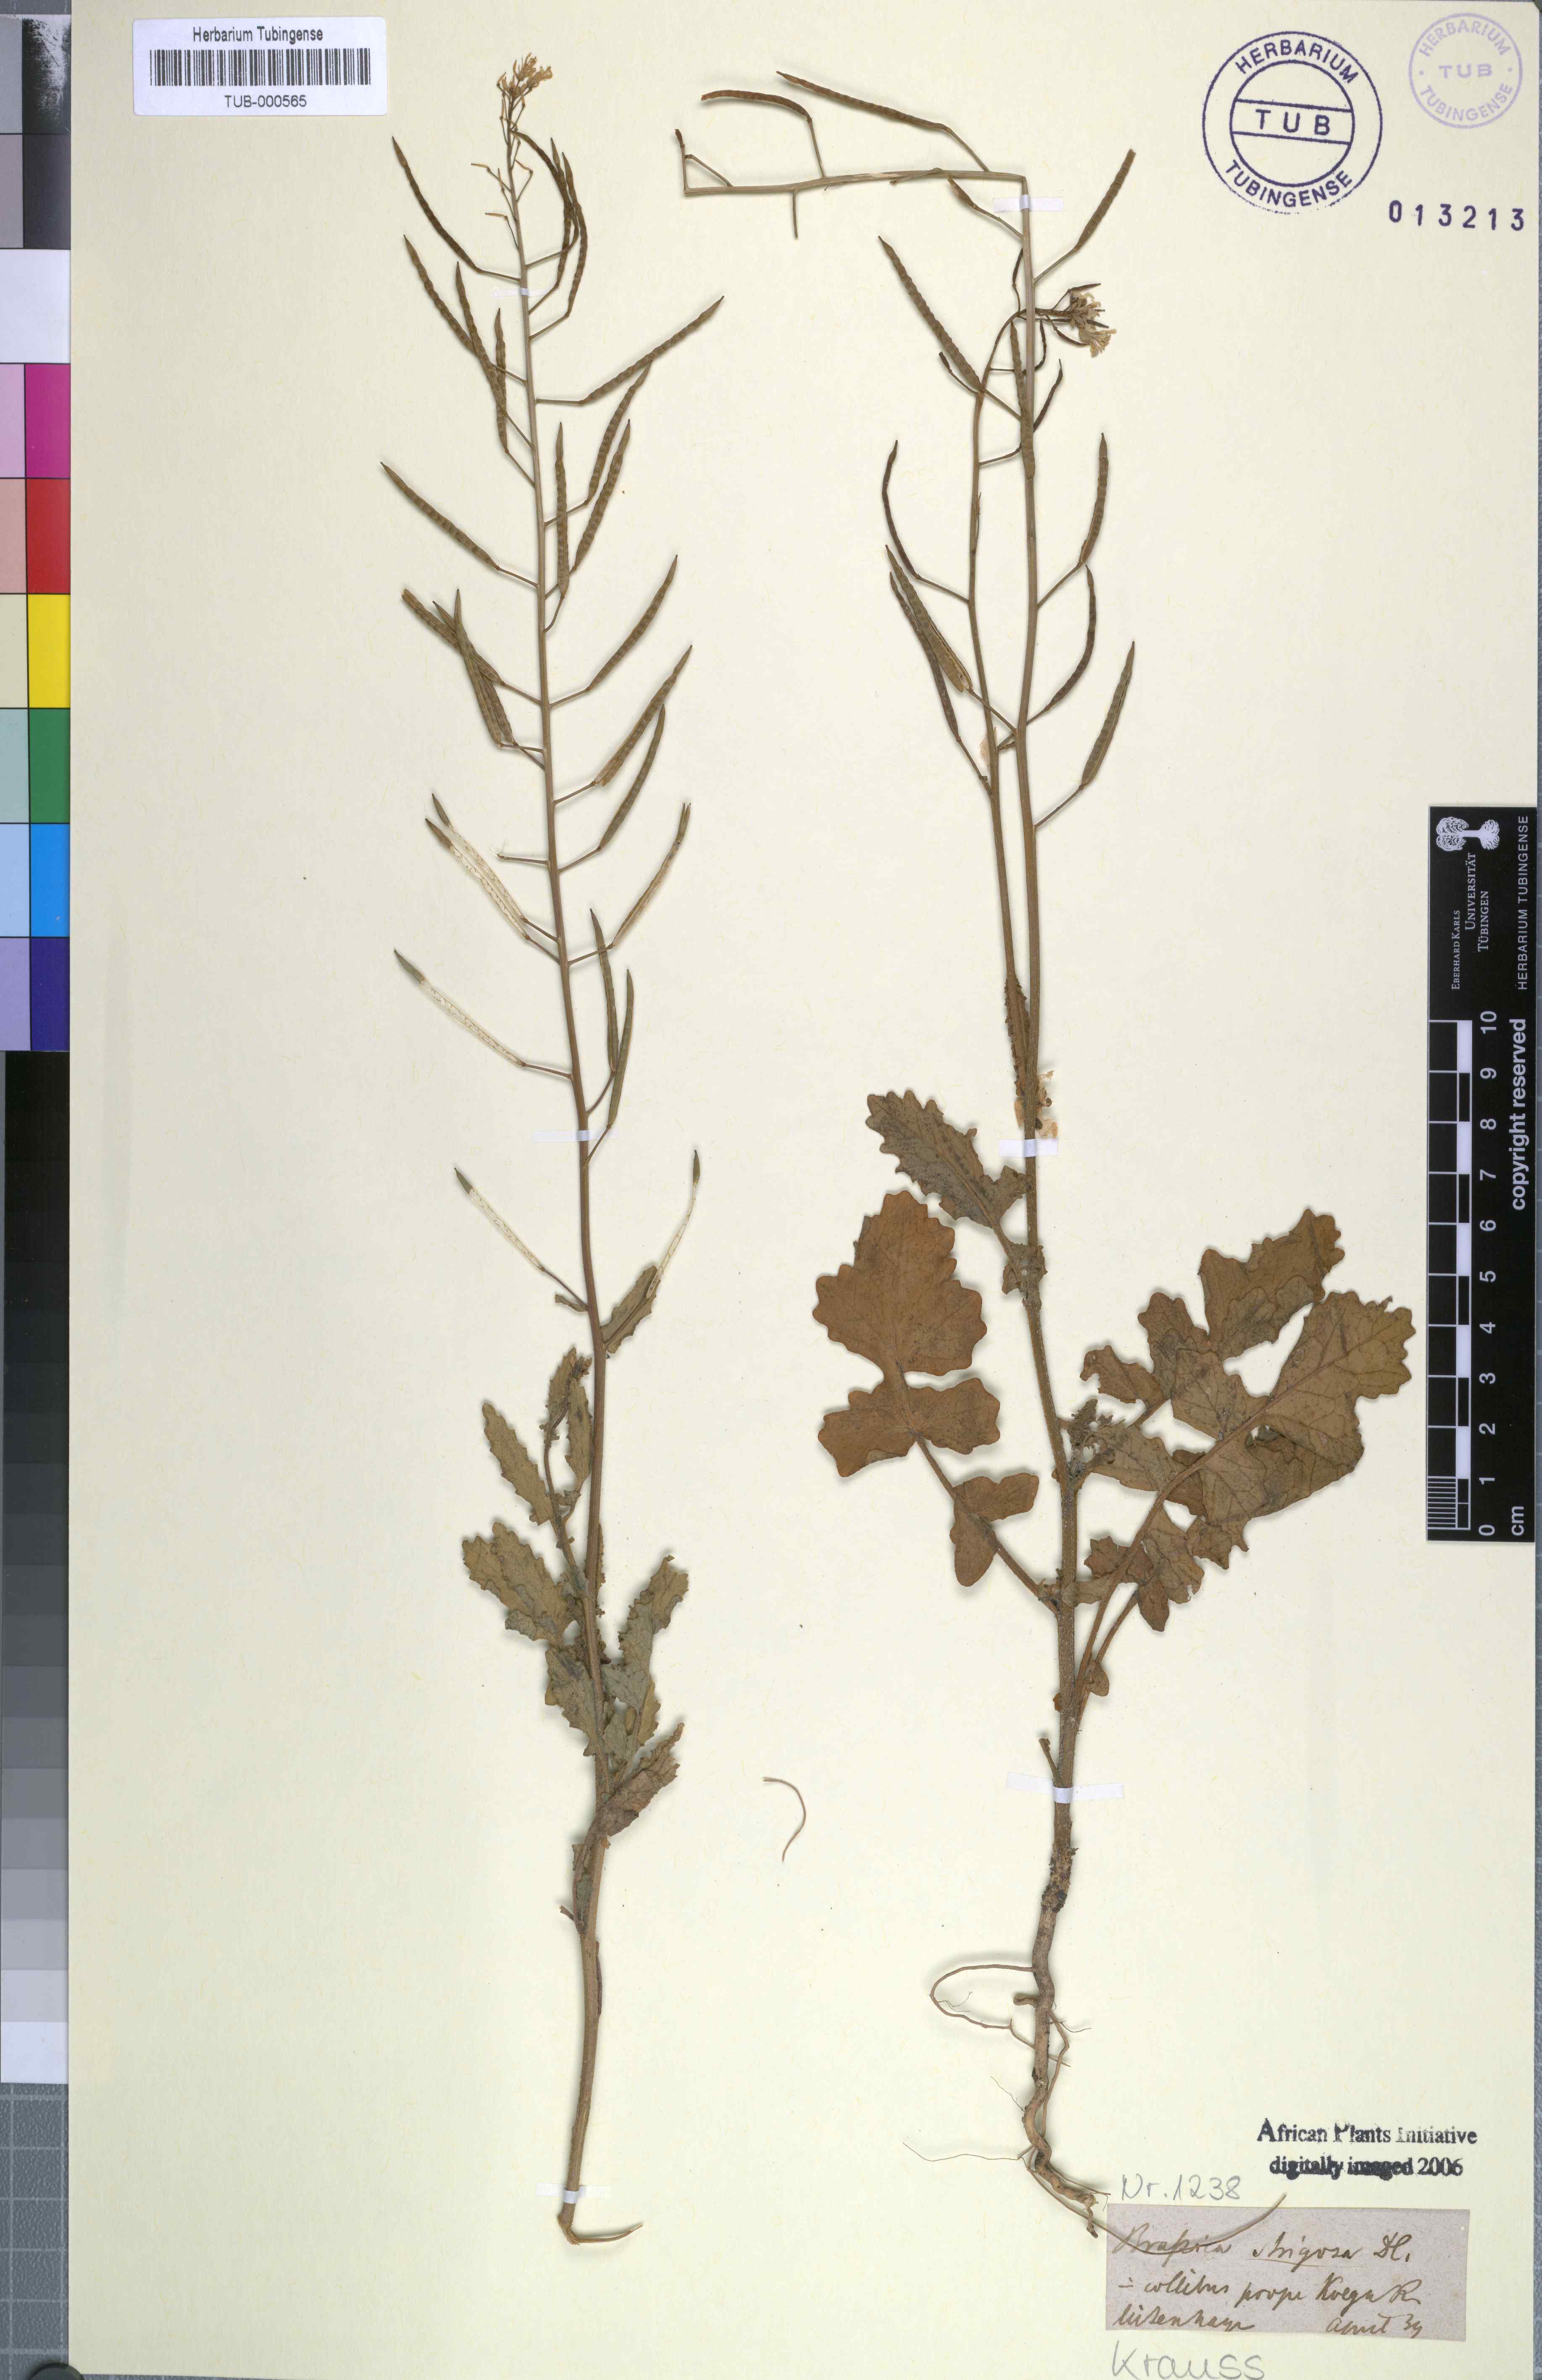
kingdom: Plantae
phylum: Tracheophyta
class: Magnoliopsida
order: Brassicales
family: Brassicaceae
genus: Erucastrum
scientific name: Erucastrum strigosum
